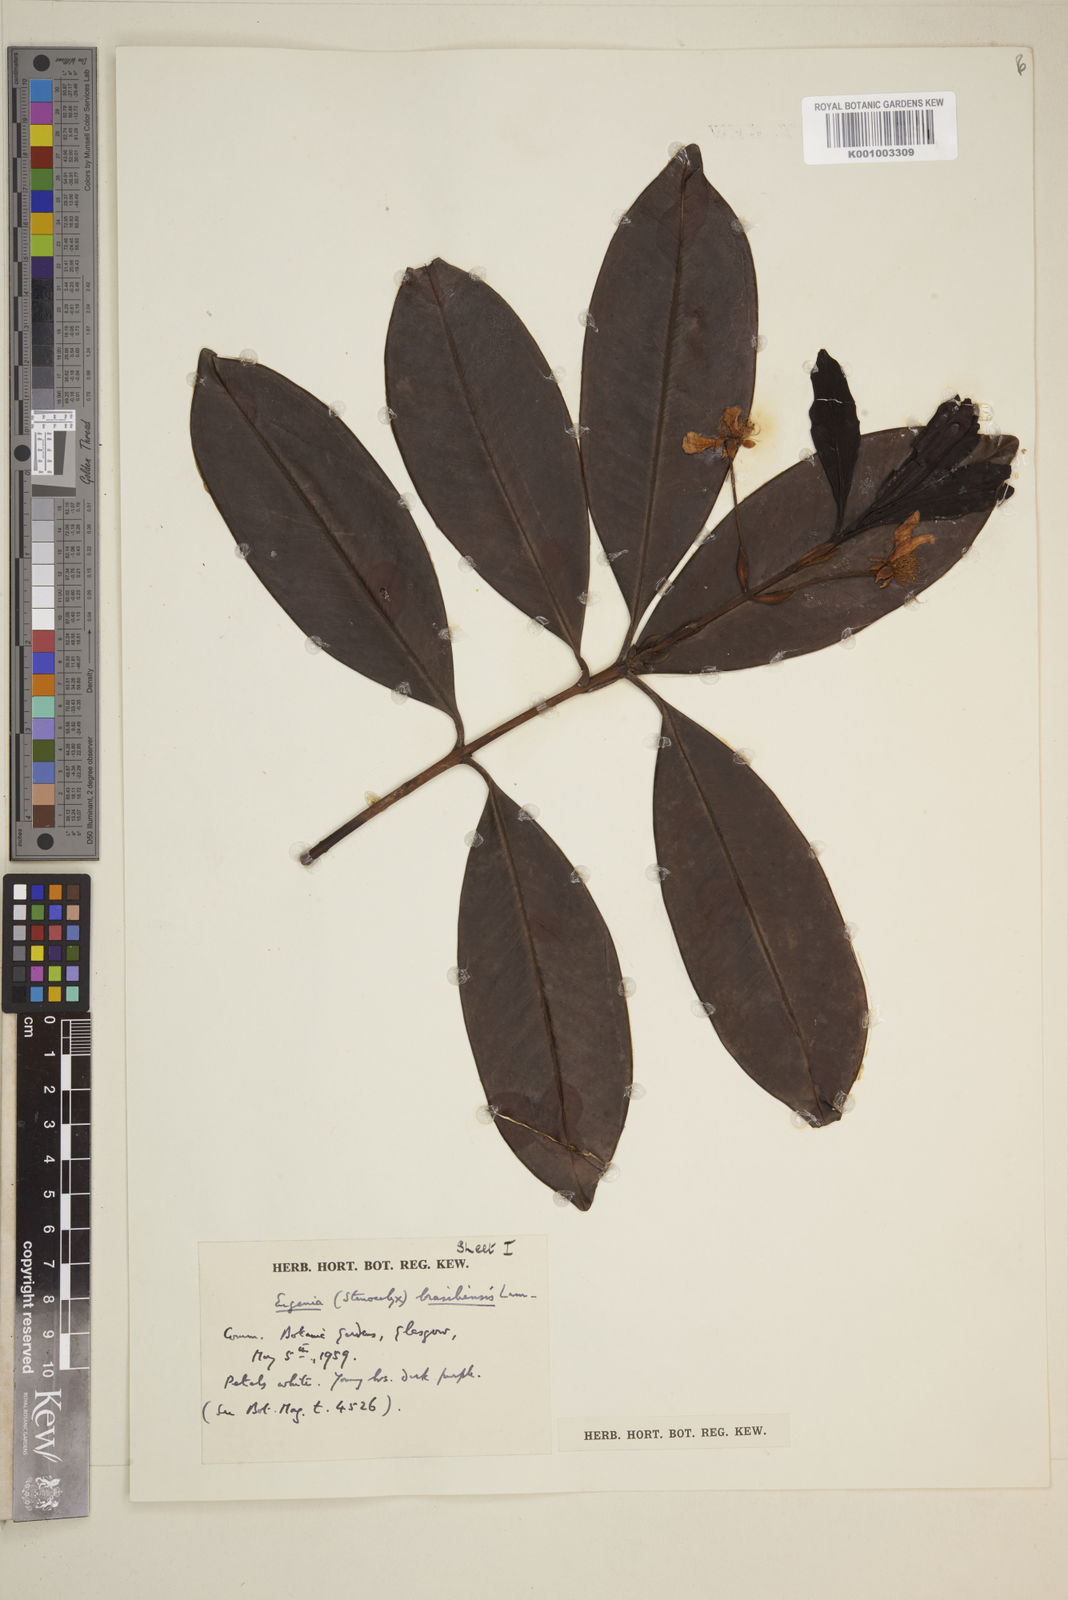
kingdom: Plantae
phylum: Tracheophyta
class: Magnoliopsida
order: Myrtales
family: Myrtaceae
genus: Eugenia
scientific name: Eugenia
